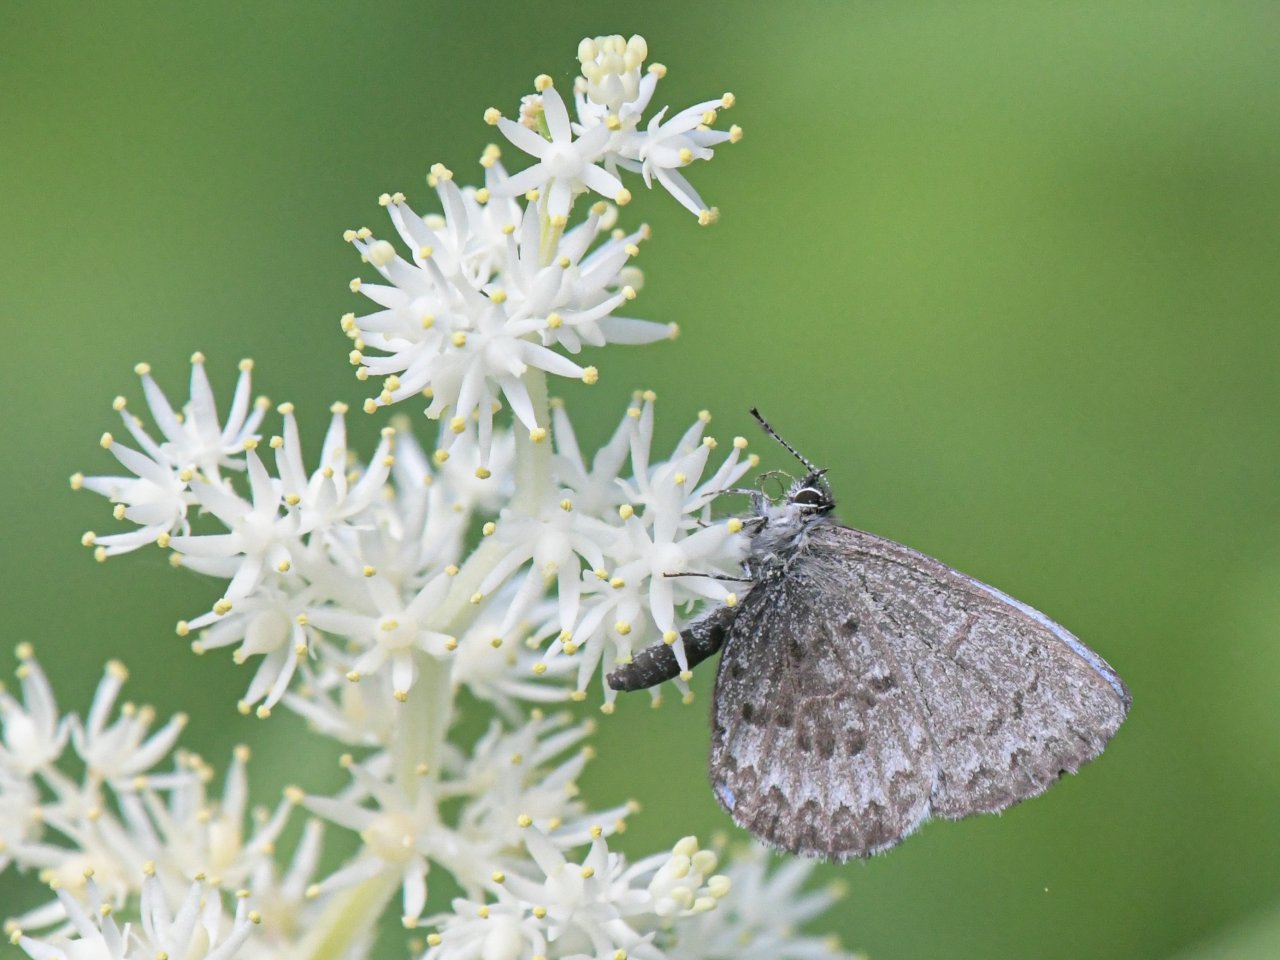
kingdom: Animalia
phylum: Arthropoda
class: Insecta
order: Lepidoptera
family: Lycaenidae
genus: Celastrina
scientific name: Celastrina lucia
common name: Northern Spring Azure
